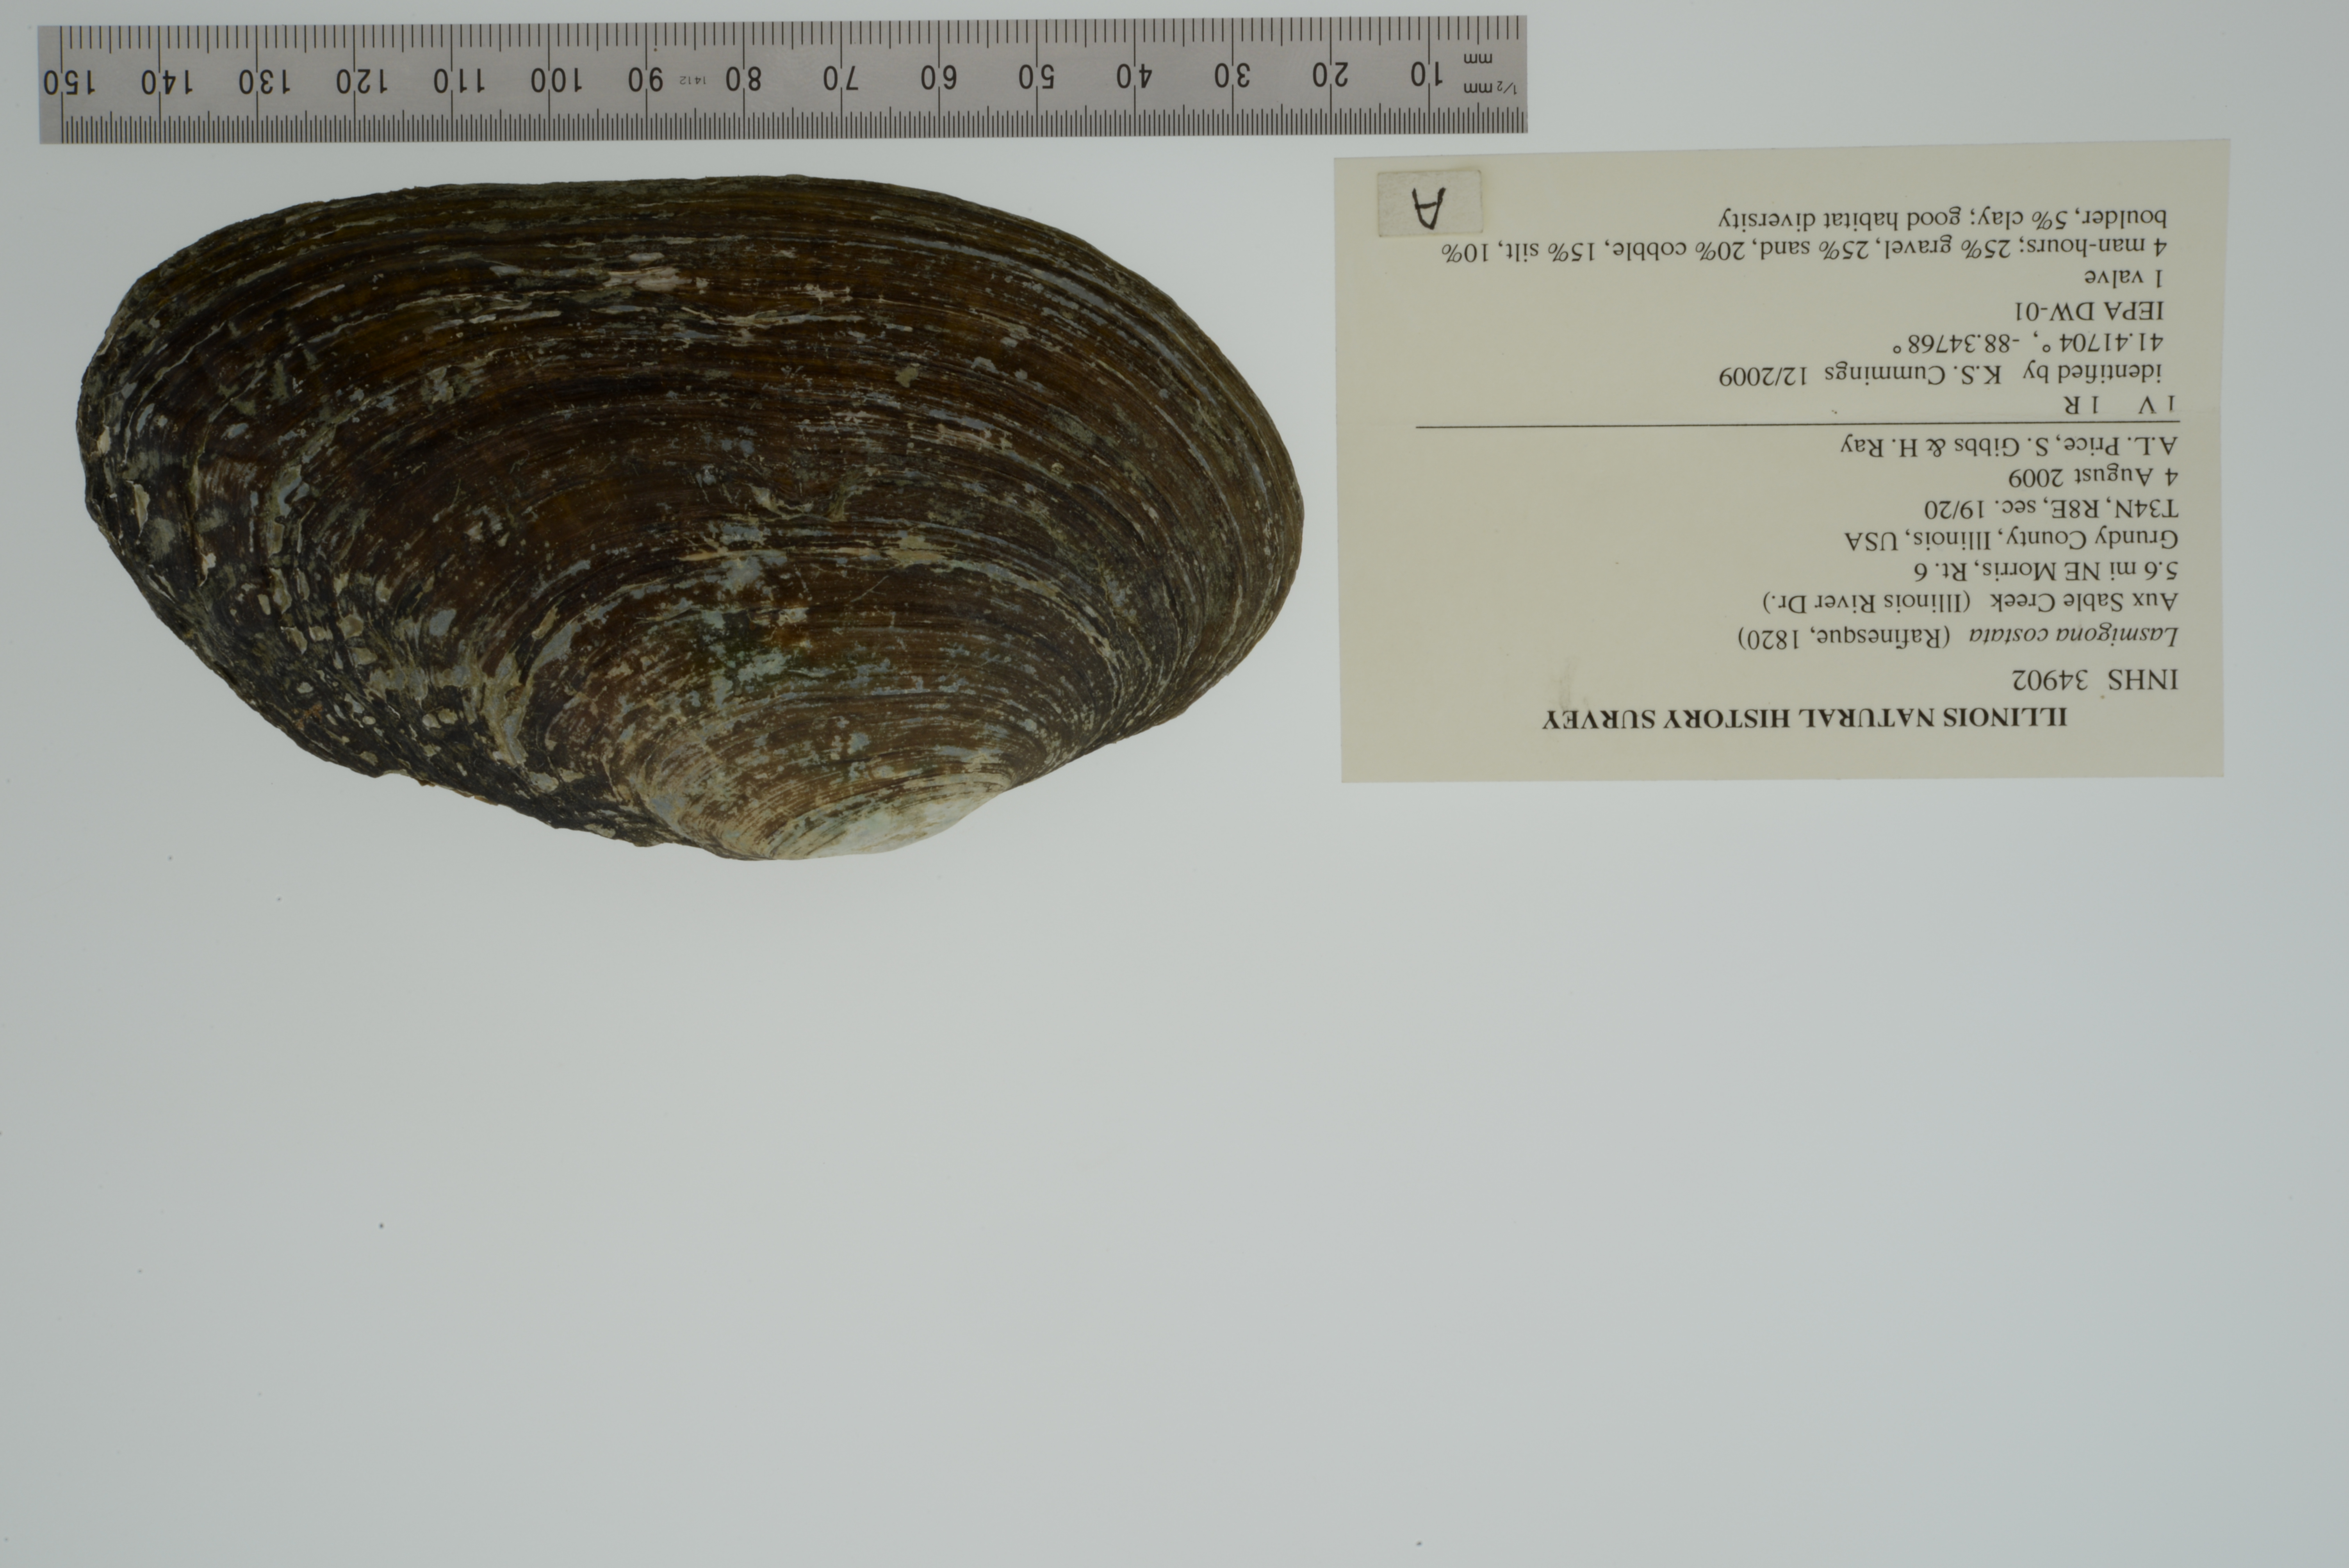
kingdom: Animalia
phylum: Mollusca
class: Bivalvia
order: Unionida
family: Unionidae
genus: Lasmigona
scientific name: Lasmigona costata
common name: Flutedshell
